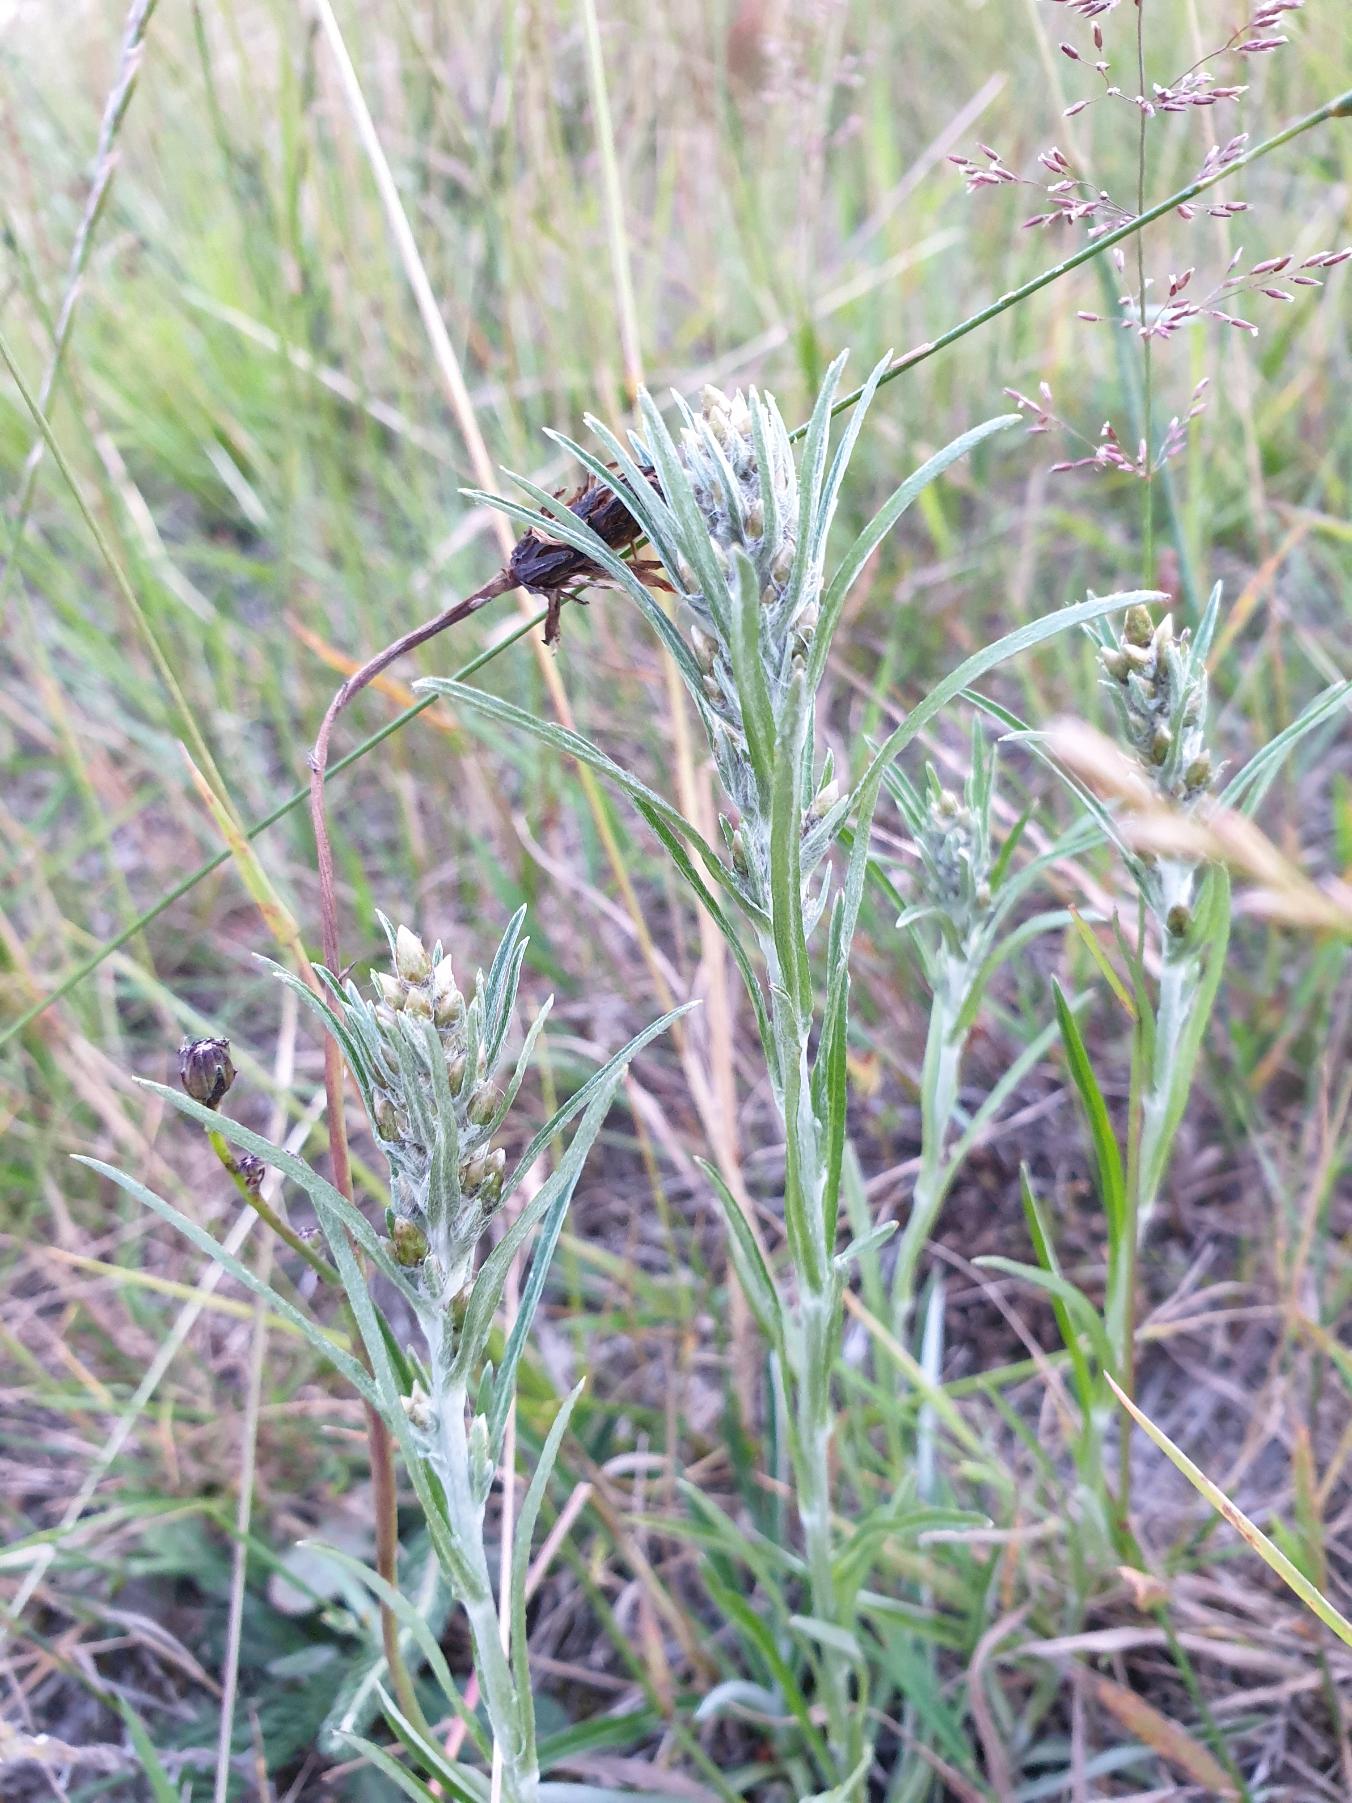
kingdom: Plantae
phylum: Tracheophyta
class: Magnoliopsida
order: Asterales
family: Asteraceae
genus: Omalotheca
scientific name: Omalotheca sylvatica
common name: Rank evighedsblomst
